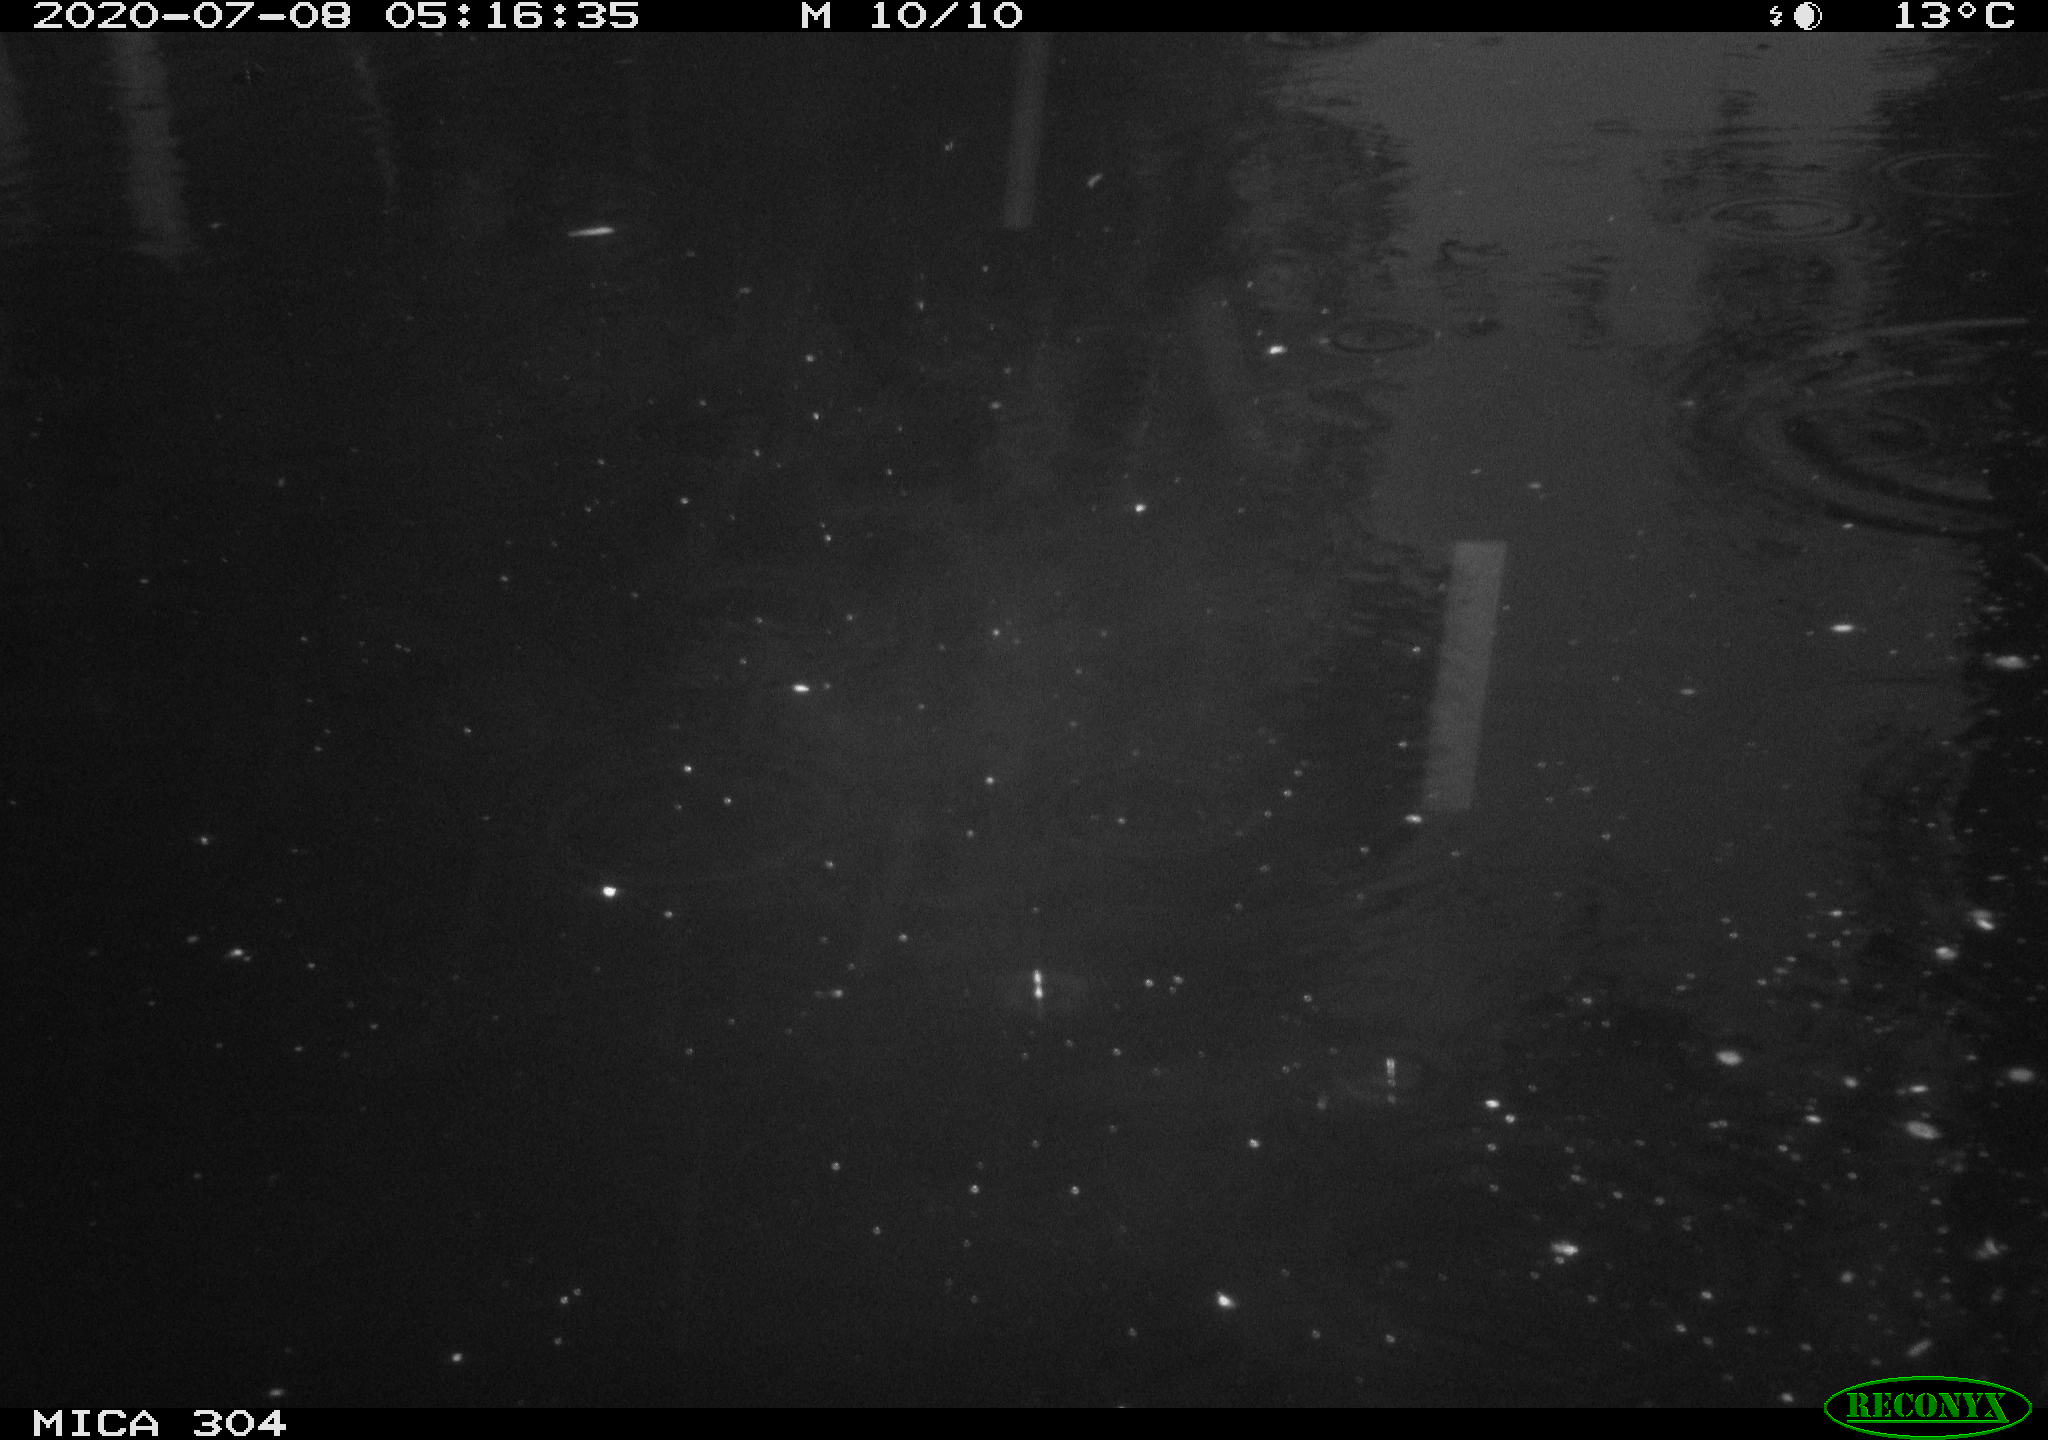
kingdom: Animalia
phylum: Chordata
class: Aves
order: Anseriformes
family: Anatidae
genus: Anas
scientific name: Anas platyrhynchos
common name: Mallard
